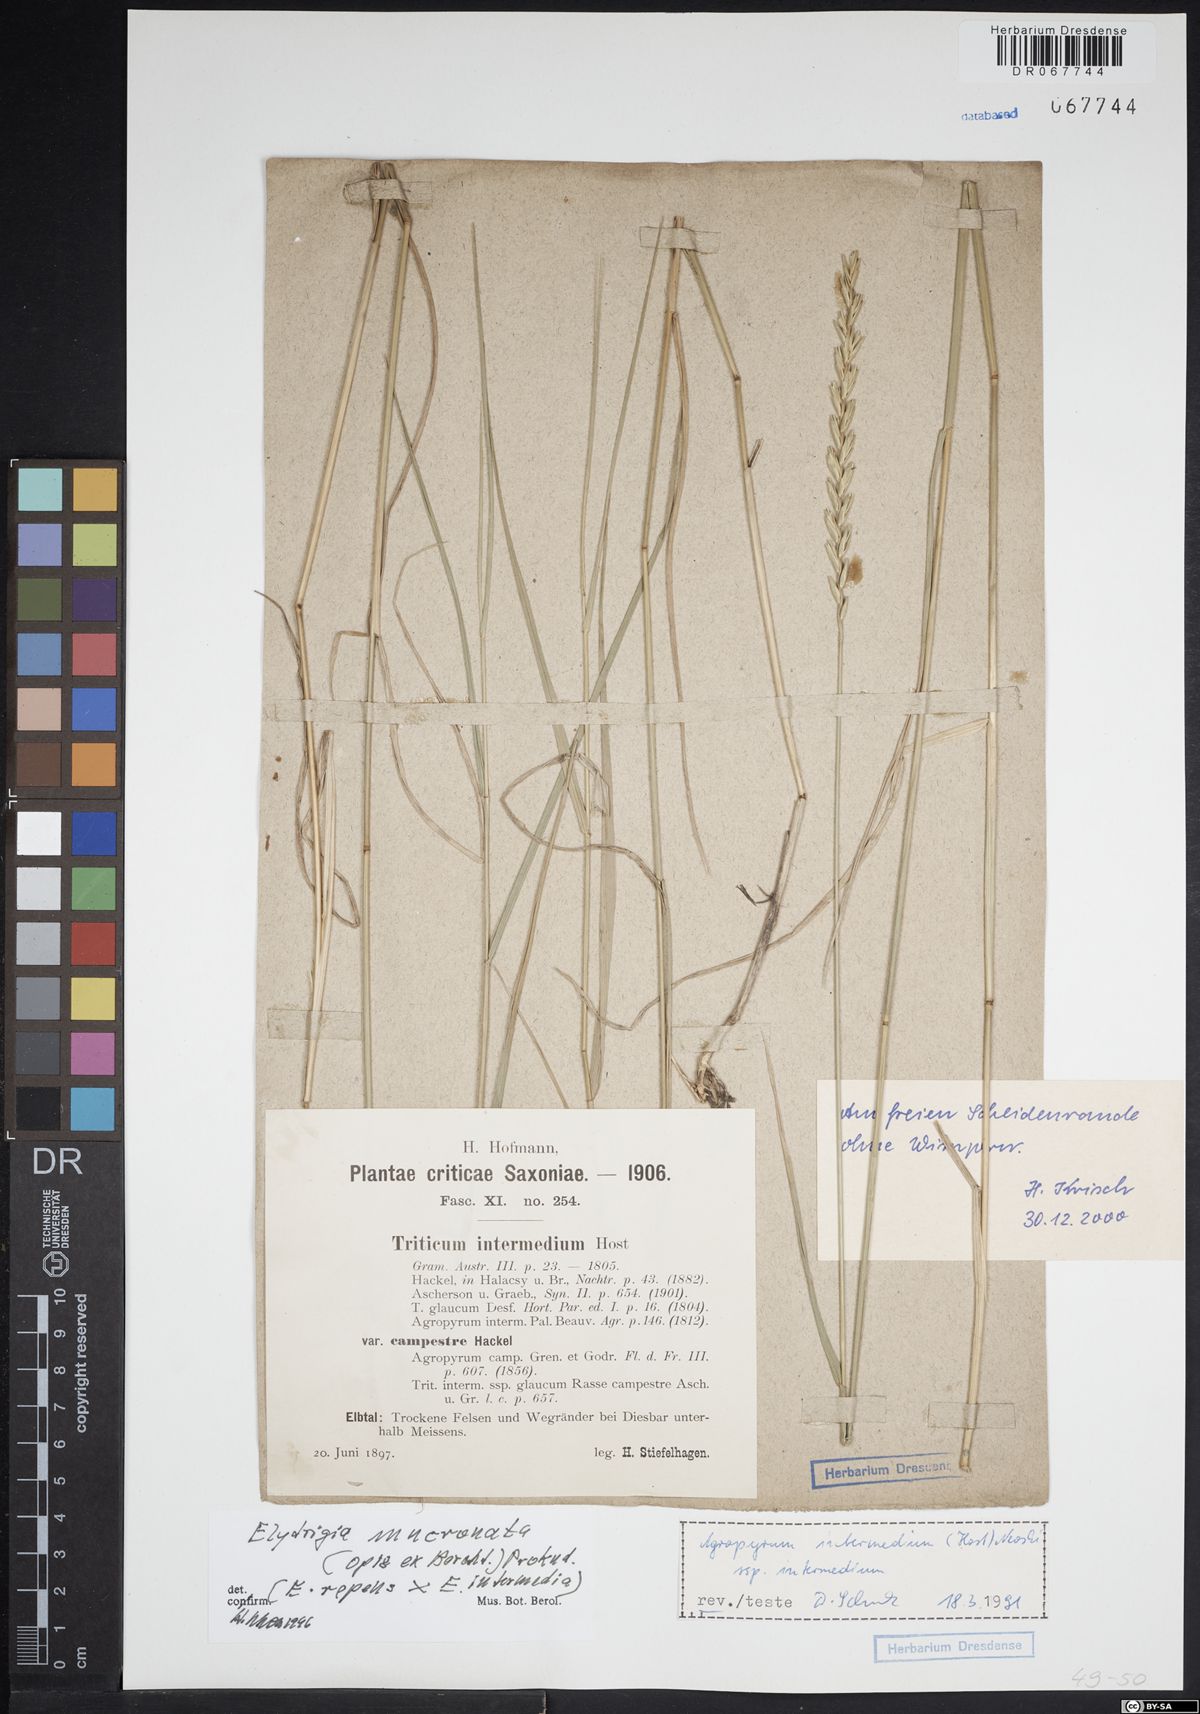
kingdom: Plantae
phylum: Tracheophyta
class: Liliopsida
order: Poales
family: Poaceae
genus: Thinoelymus
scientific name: Thinoelymus mucronatus
